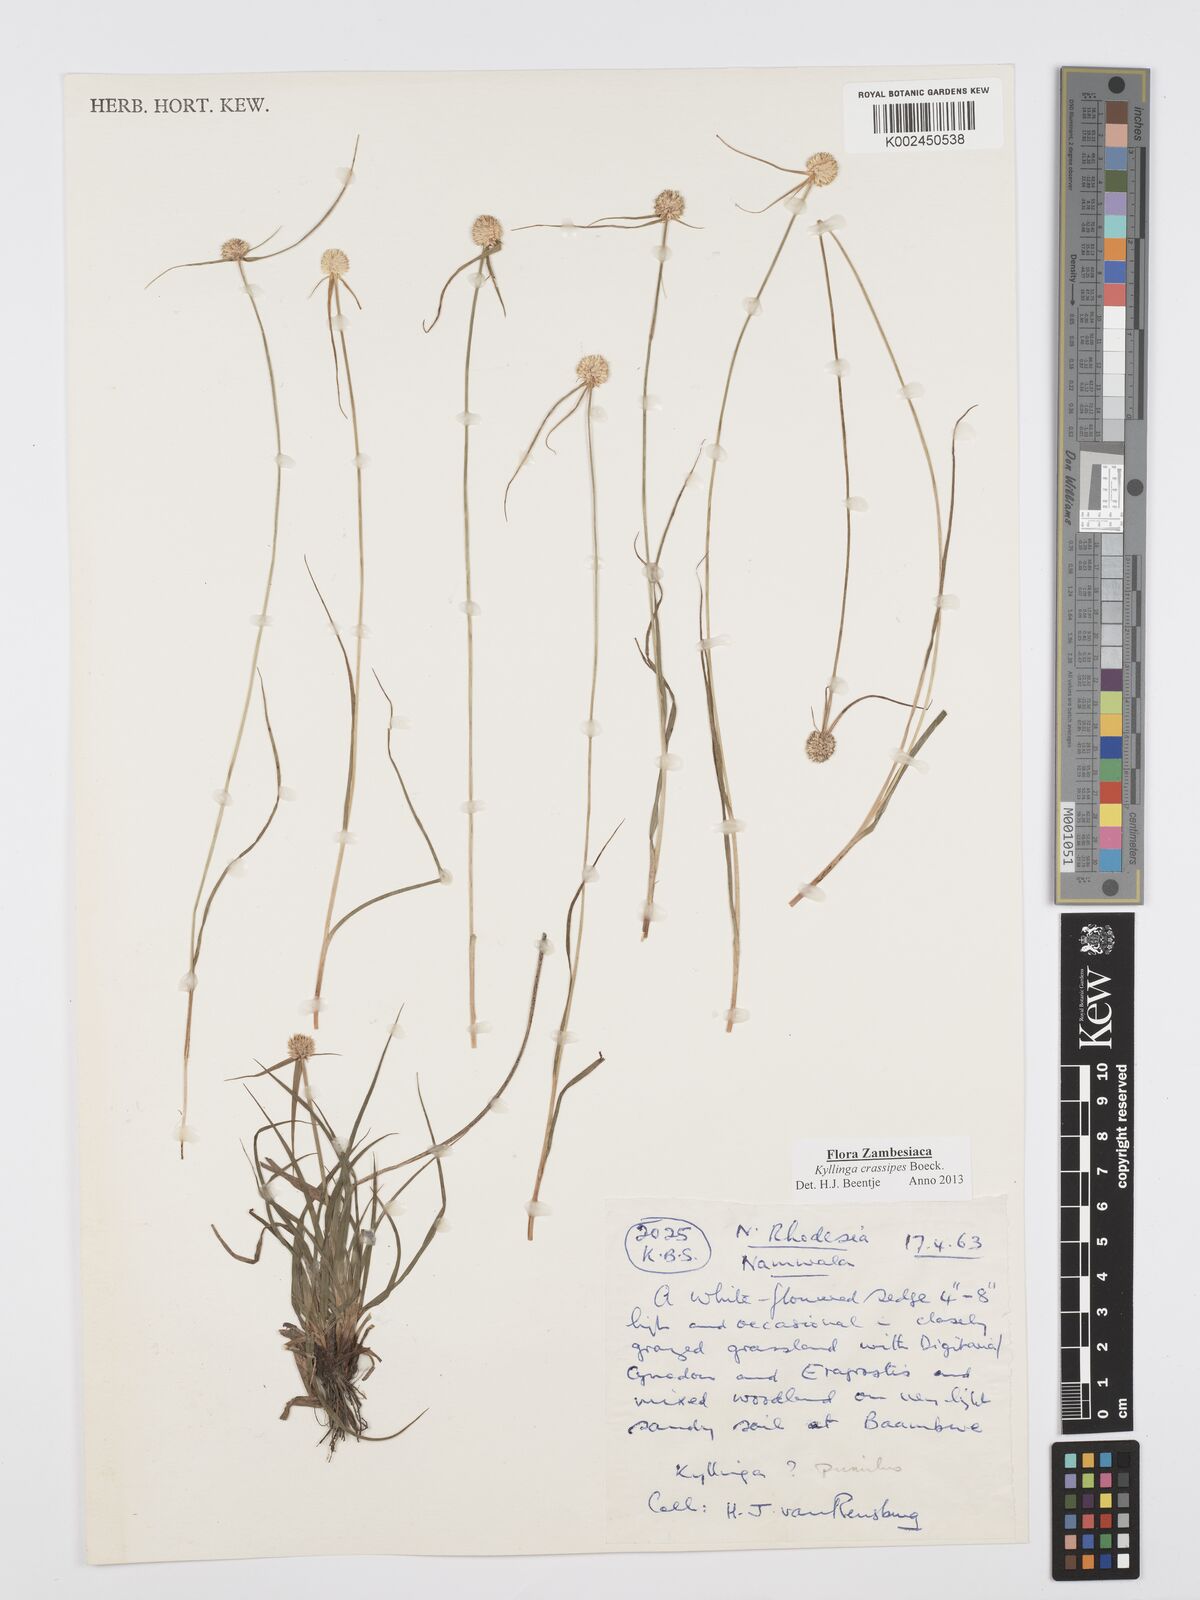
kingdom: Plantae
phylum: Tracheophyta
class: Liliopsida
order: Poales
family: Cyperaceae
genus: Cyperus
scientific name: Cyperus crassipes
